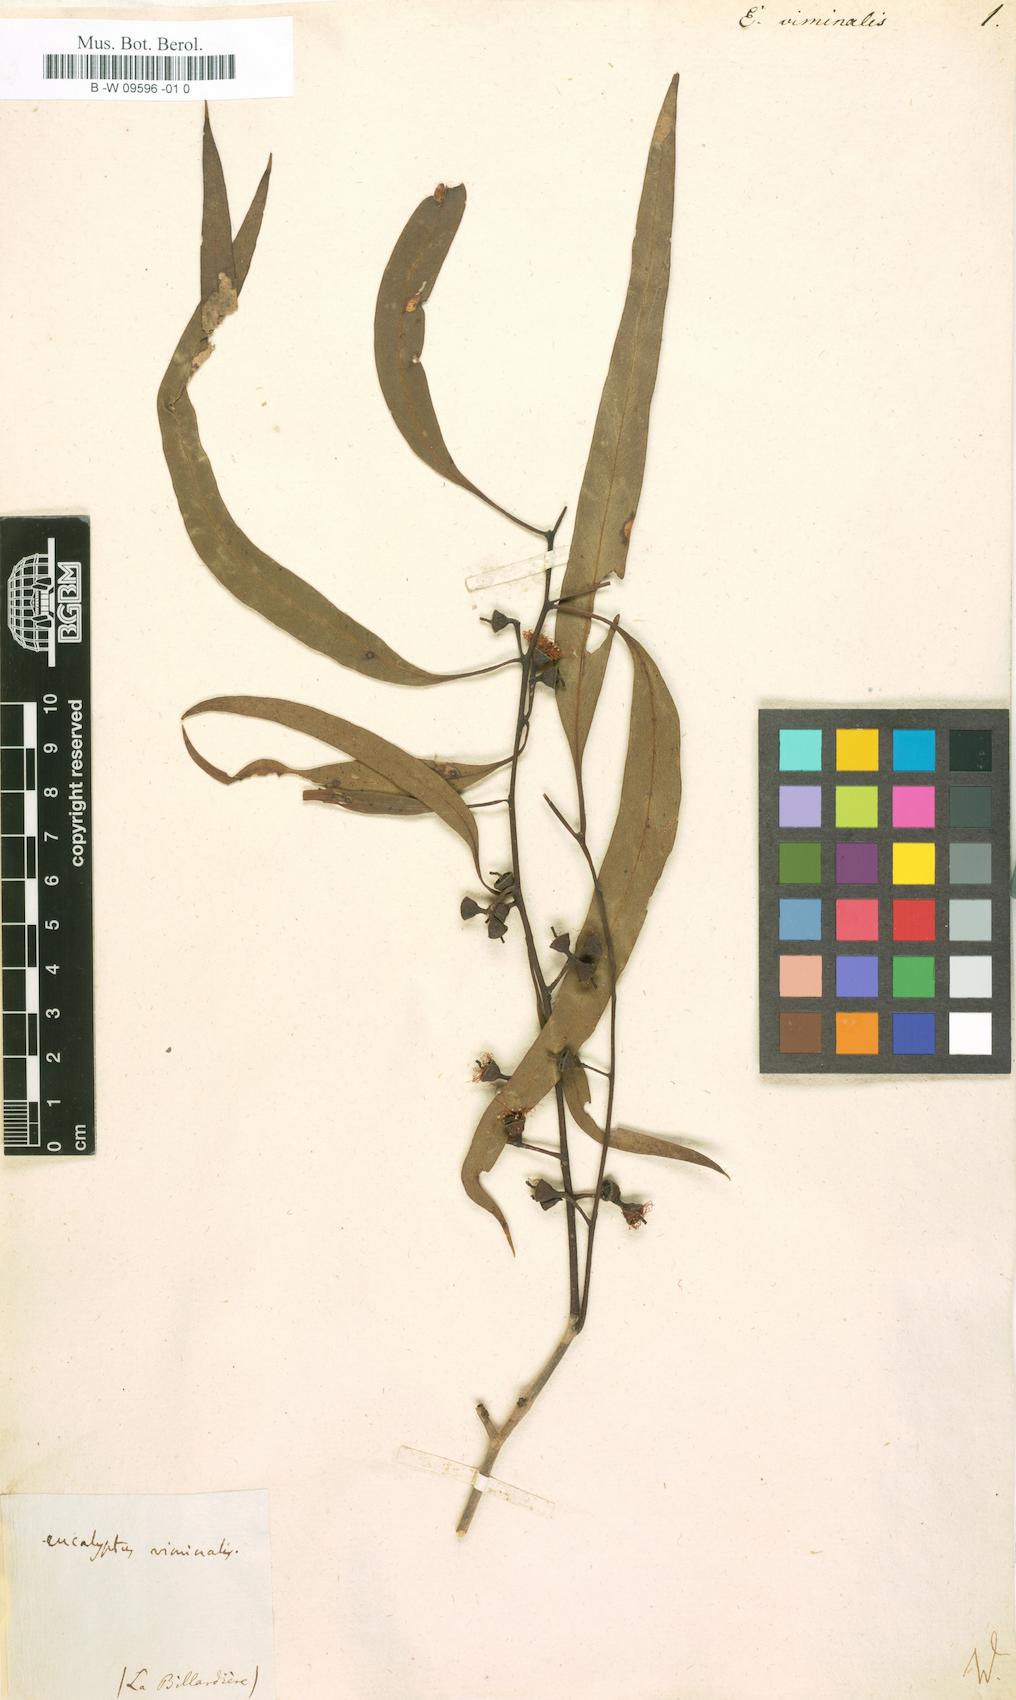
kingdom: Plantae
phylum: Tracheophyta
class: Magnoliopsida
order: Myrtales
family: Myrtaceae
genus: Eucalyptus
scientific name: Eucalyptus viminalis
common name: Manna gum
